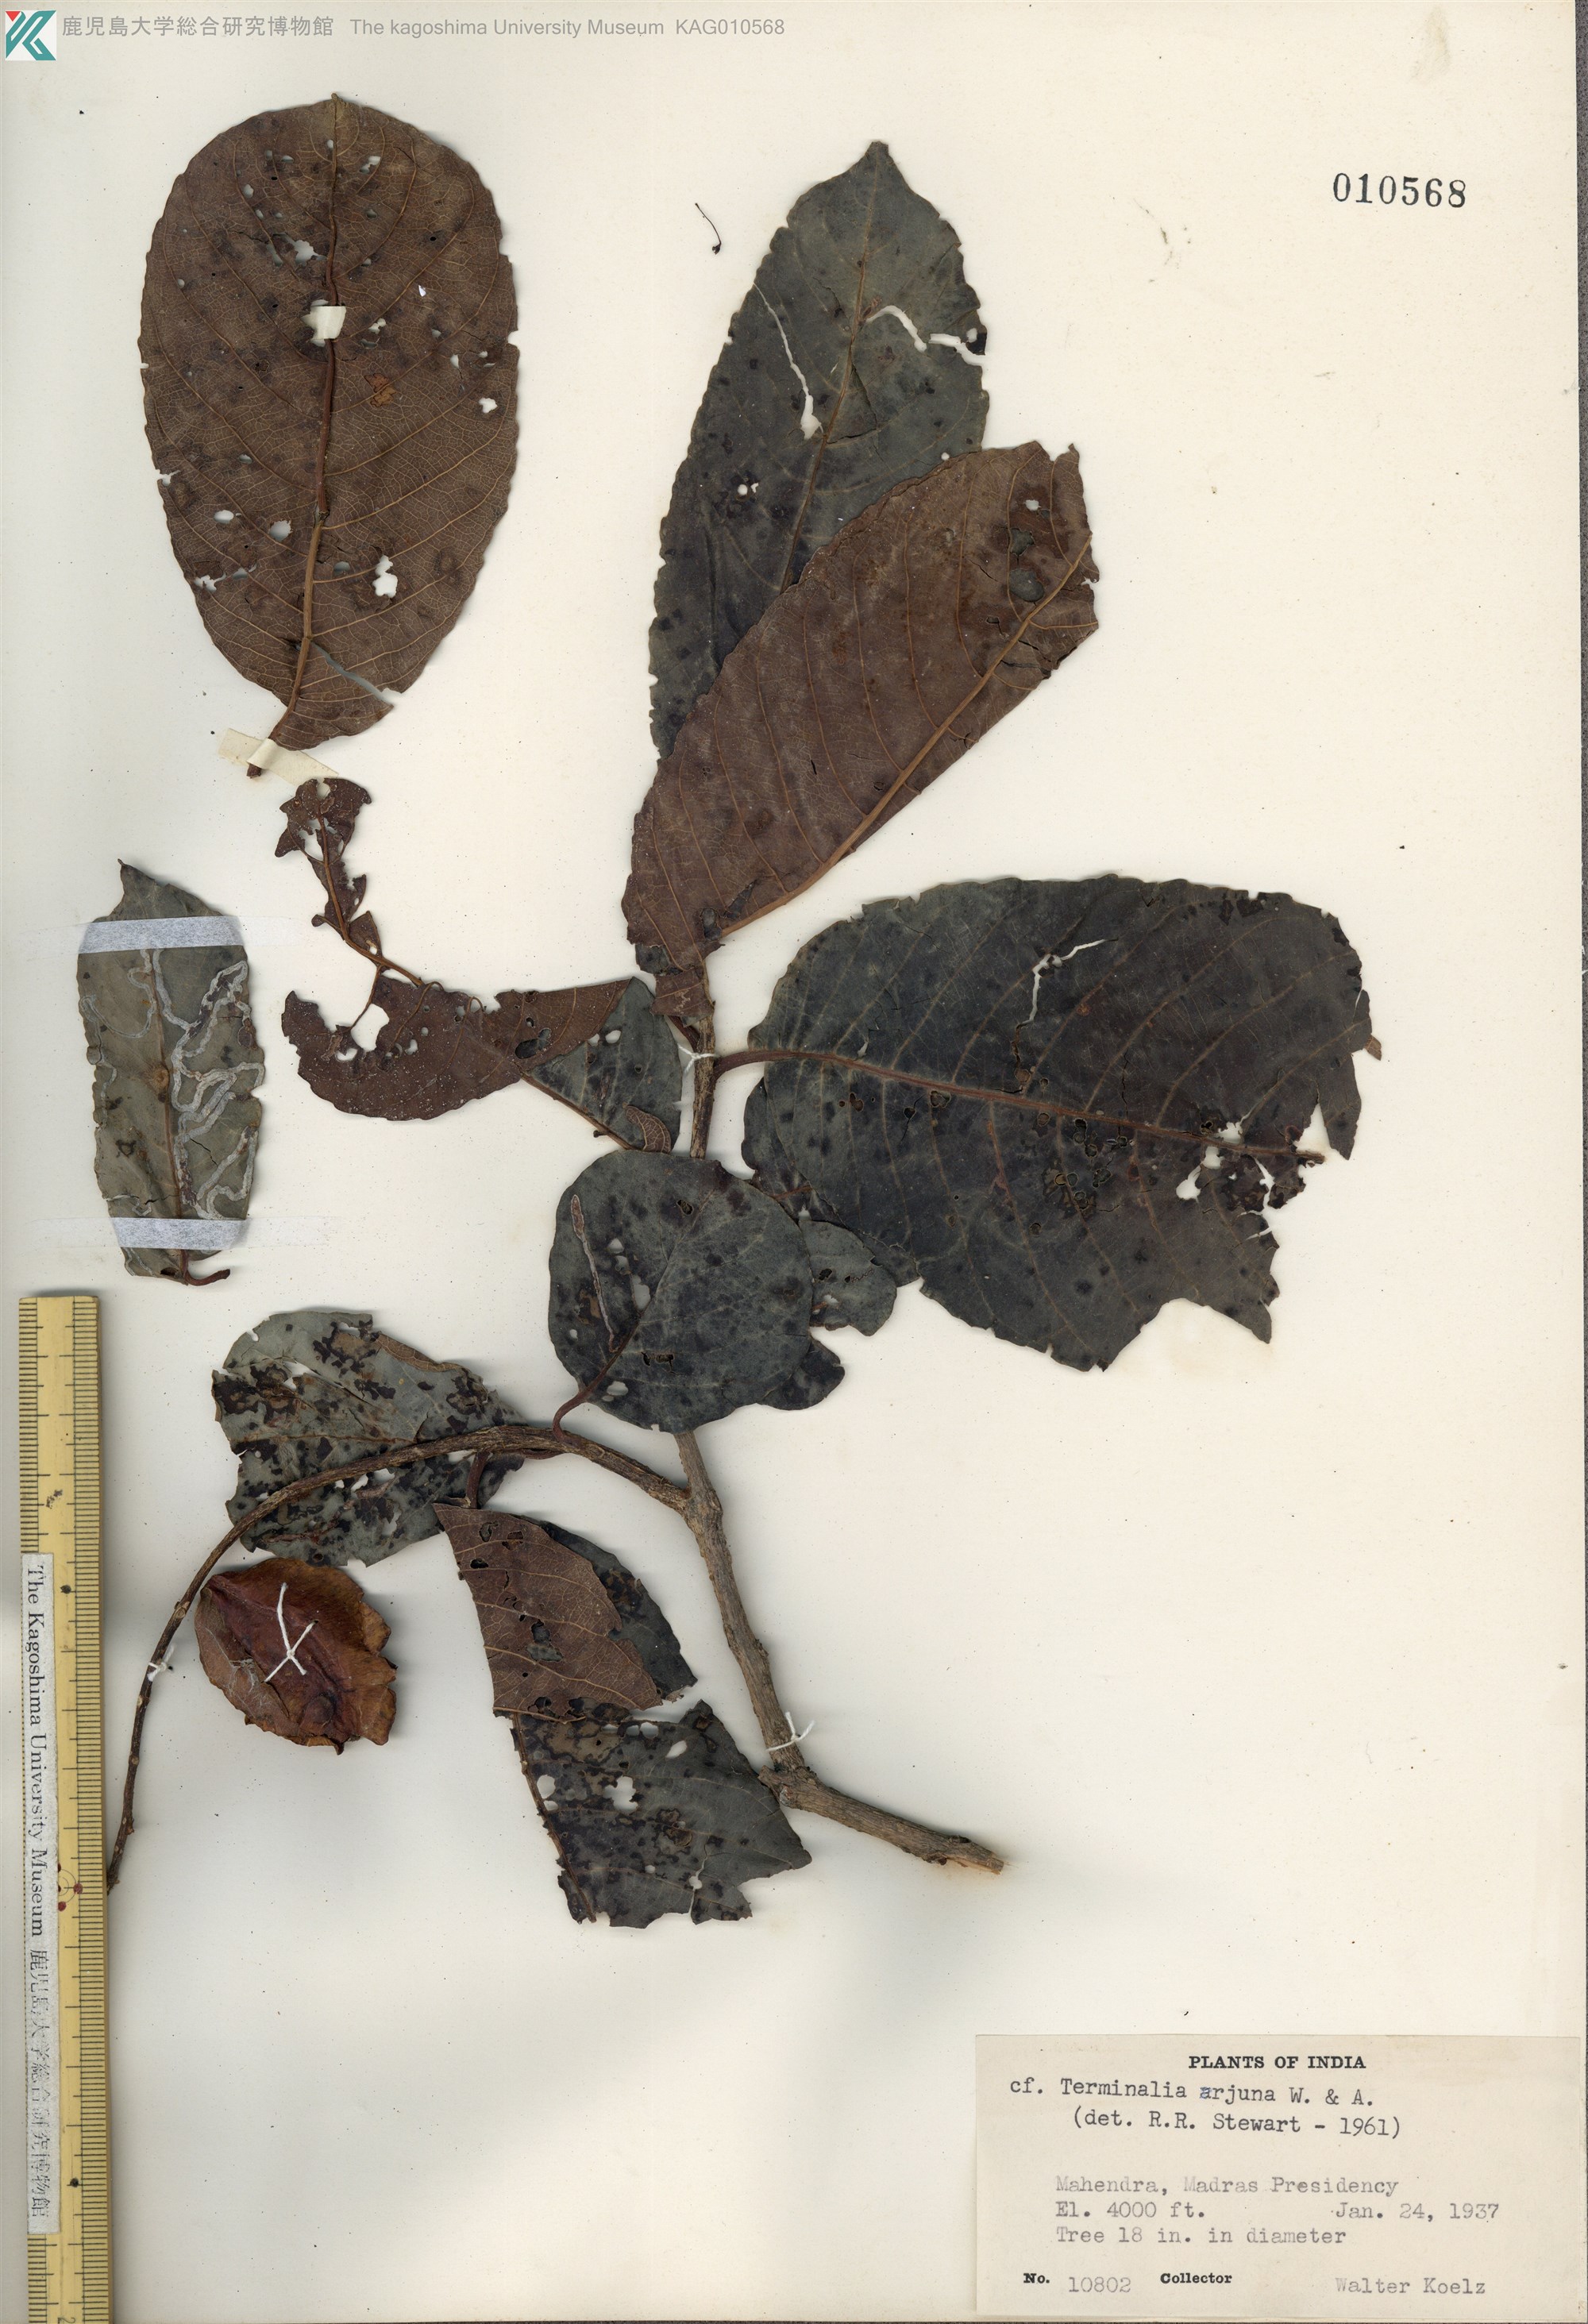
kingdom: Plantae
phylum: Tracheophyta
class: Magnoliopsida
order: Myrtales
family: Combretaceae
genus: Terminalia
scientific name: Terminalia arjuna
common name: Arjun
